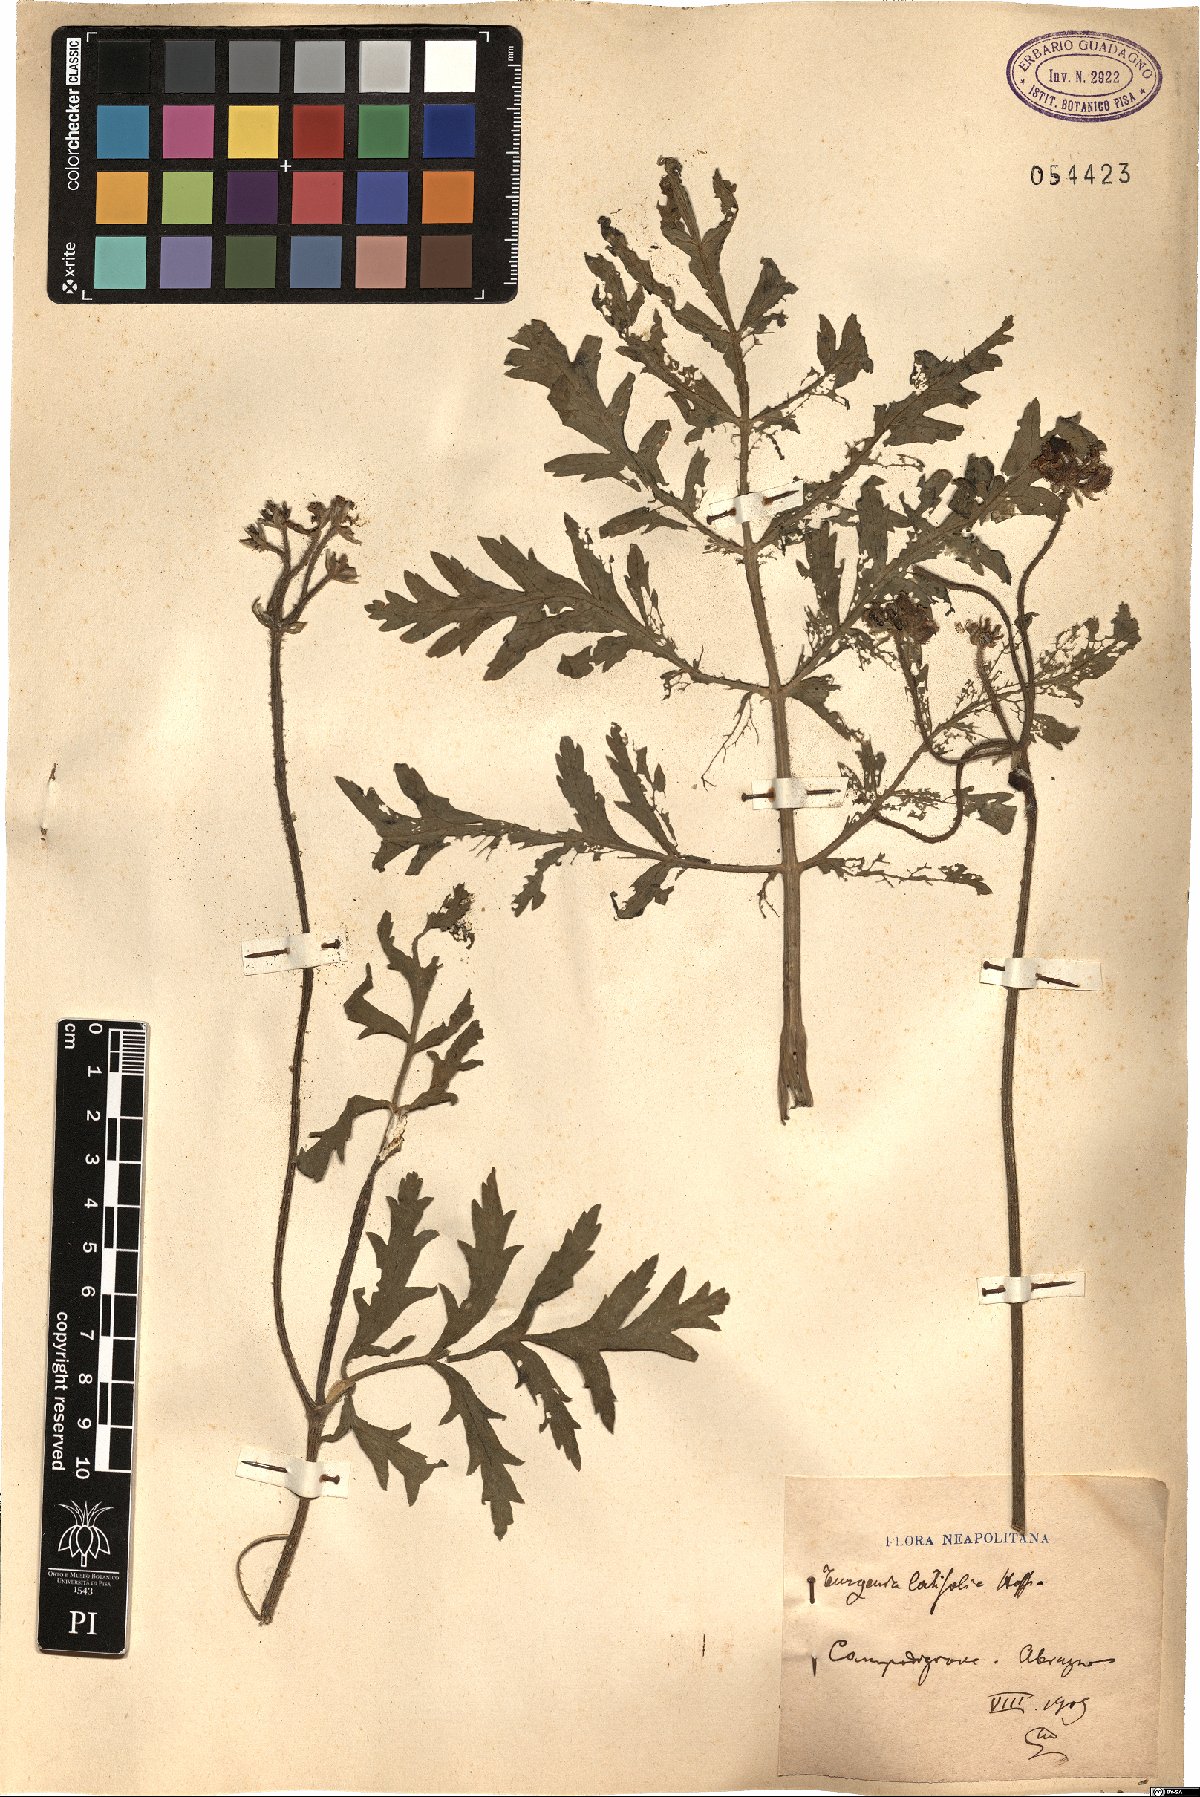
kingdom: Plantae
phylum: Tracheophyta
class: Magnoliopsida
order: Apiales
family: Apiaceae
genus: Turgenia
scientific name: Turgenia latifolia
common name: Greater bur-parsley
